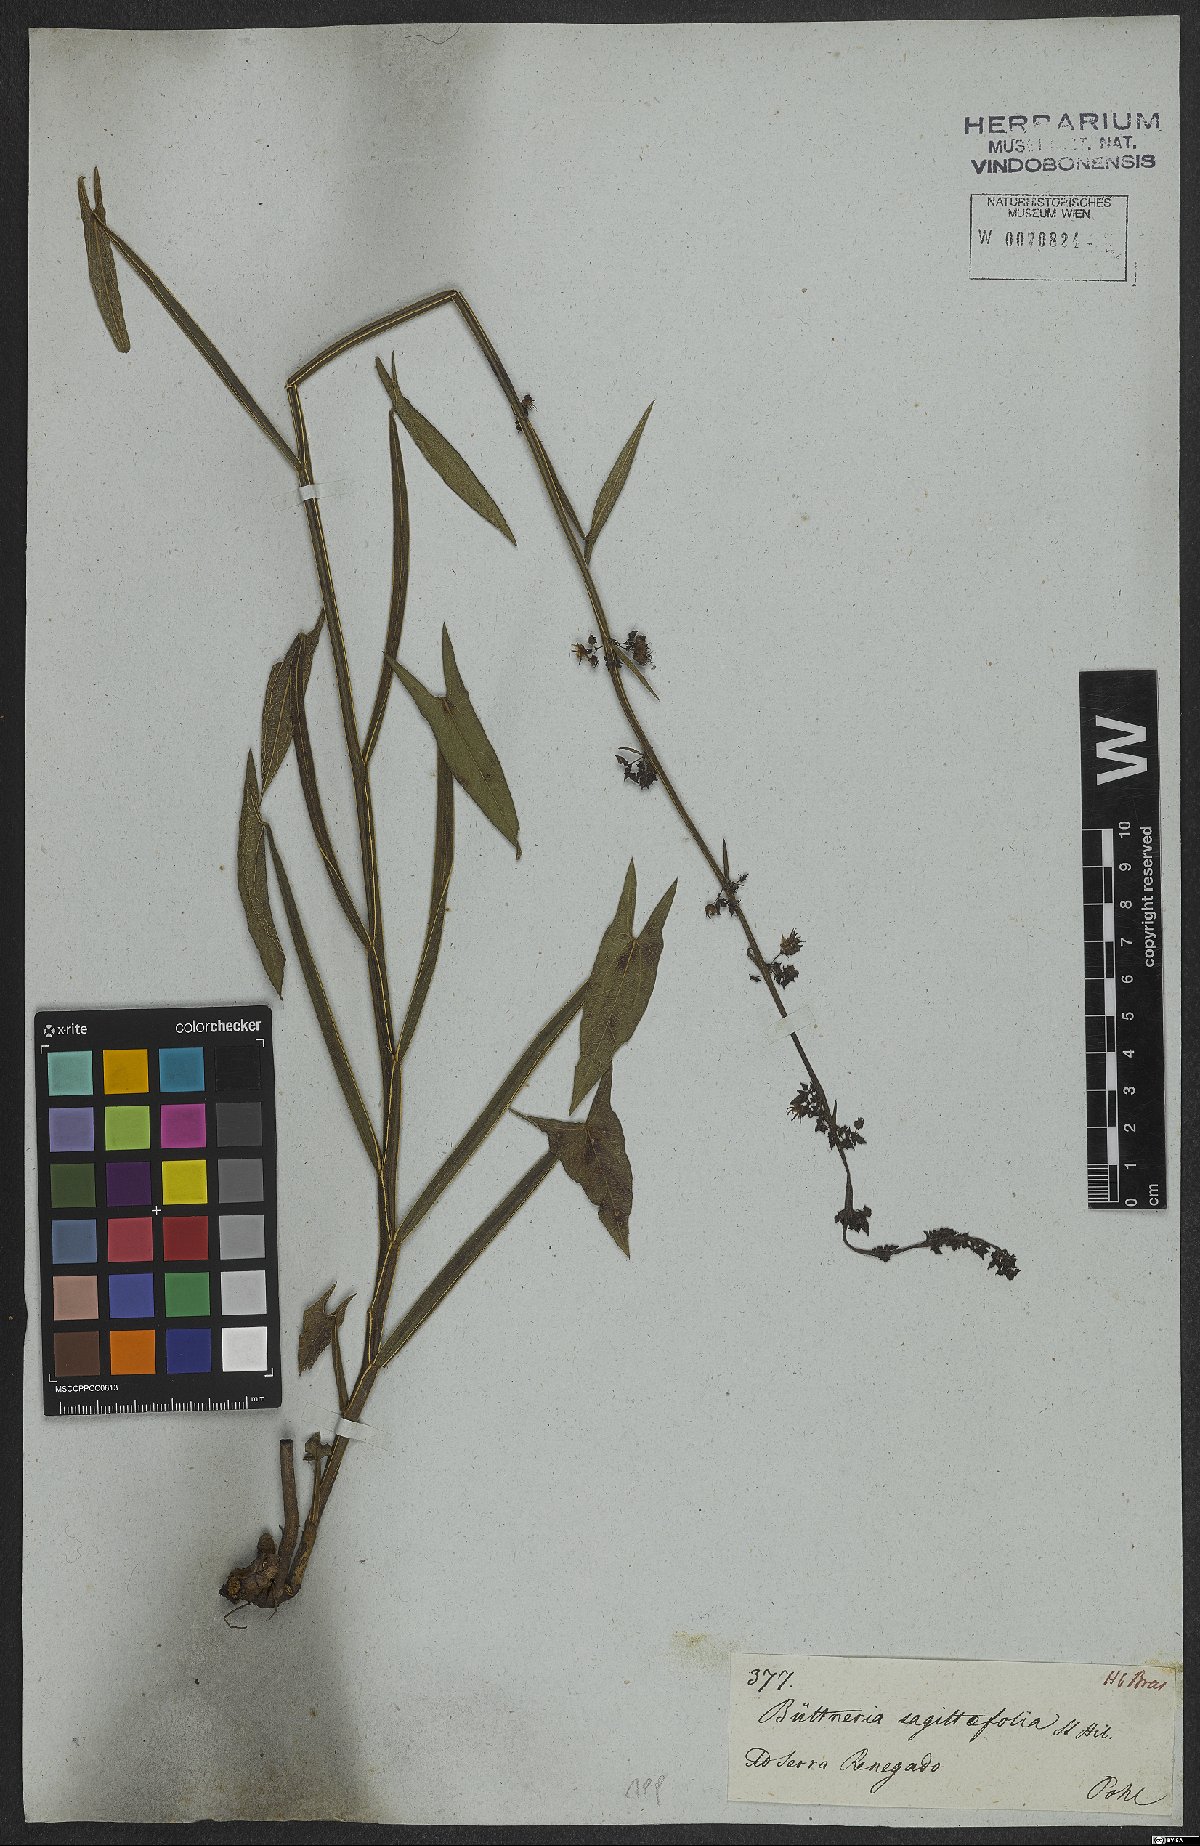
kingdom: Plantae
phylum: Tracheophyta
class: Magnoliopsida
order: Malvales
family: Malvaceae
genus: Byttneria
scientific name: Byttneria sagittifolia
